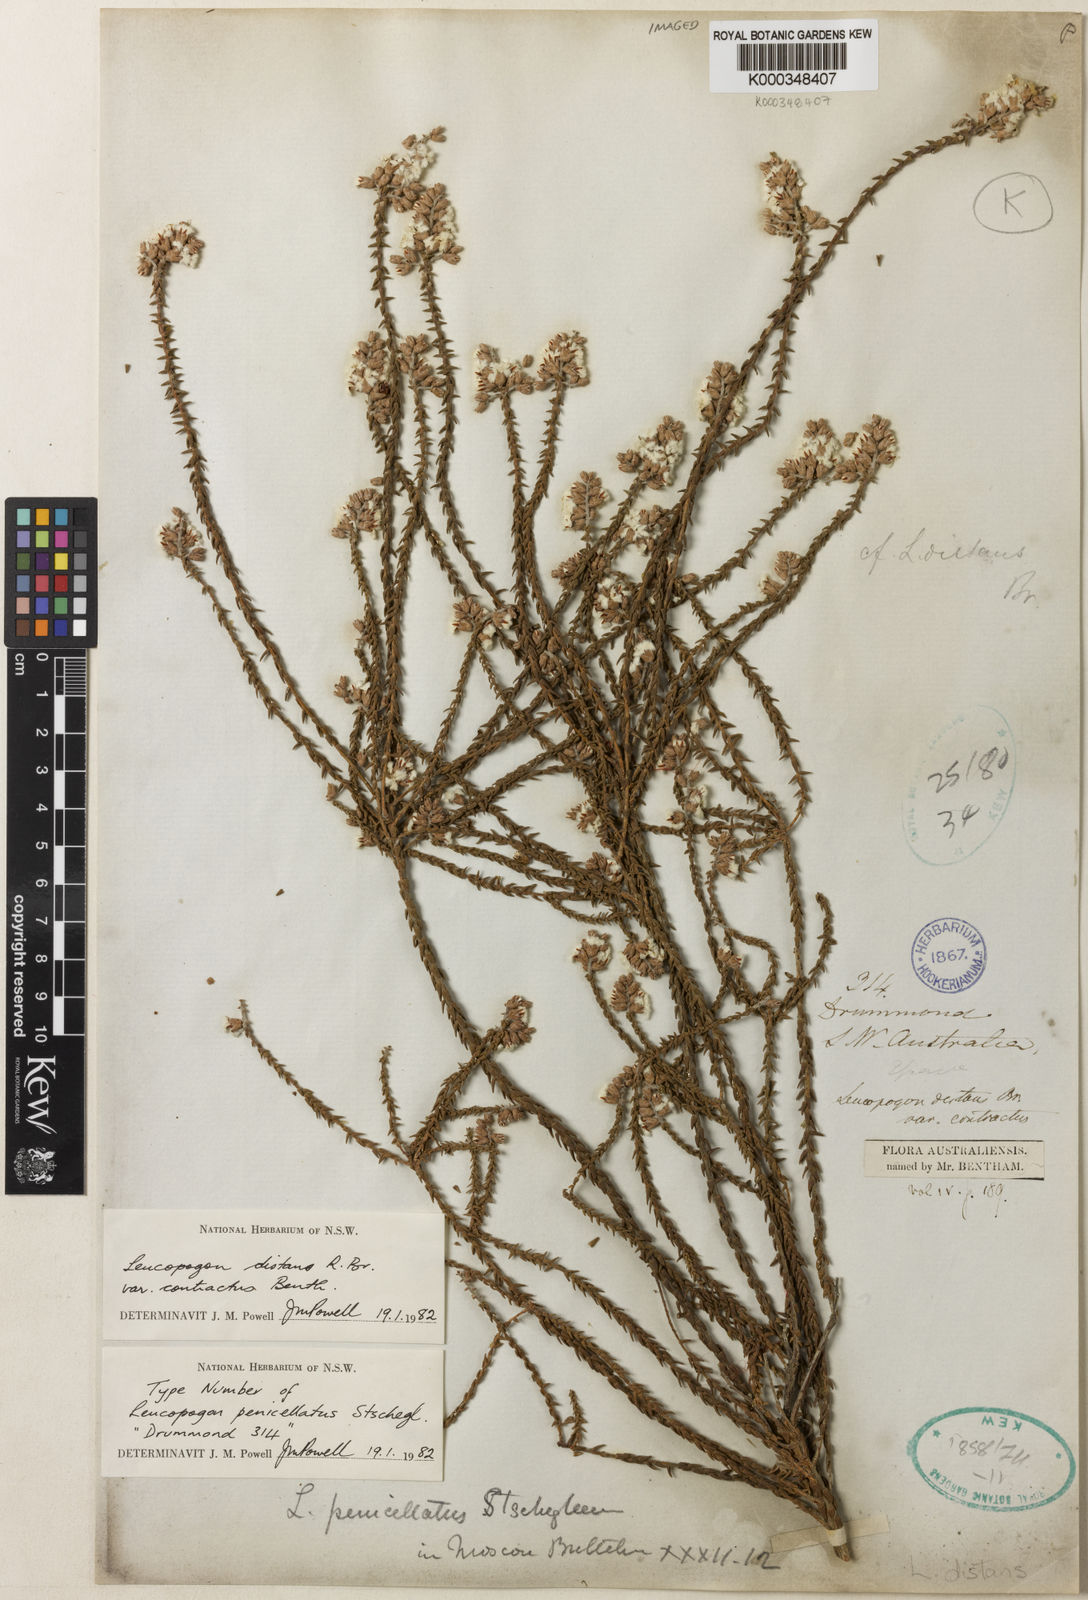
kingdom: Plantae
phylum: Tracheophyta
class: Magnoliopsida
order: Ericales
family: Ericaceae
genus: Leucopogon
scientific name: Leucopogon penicillatus
